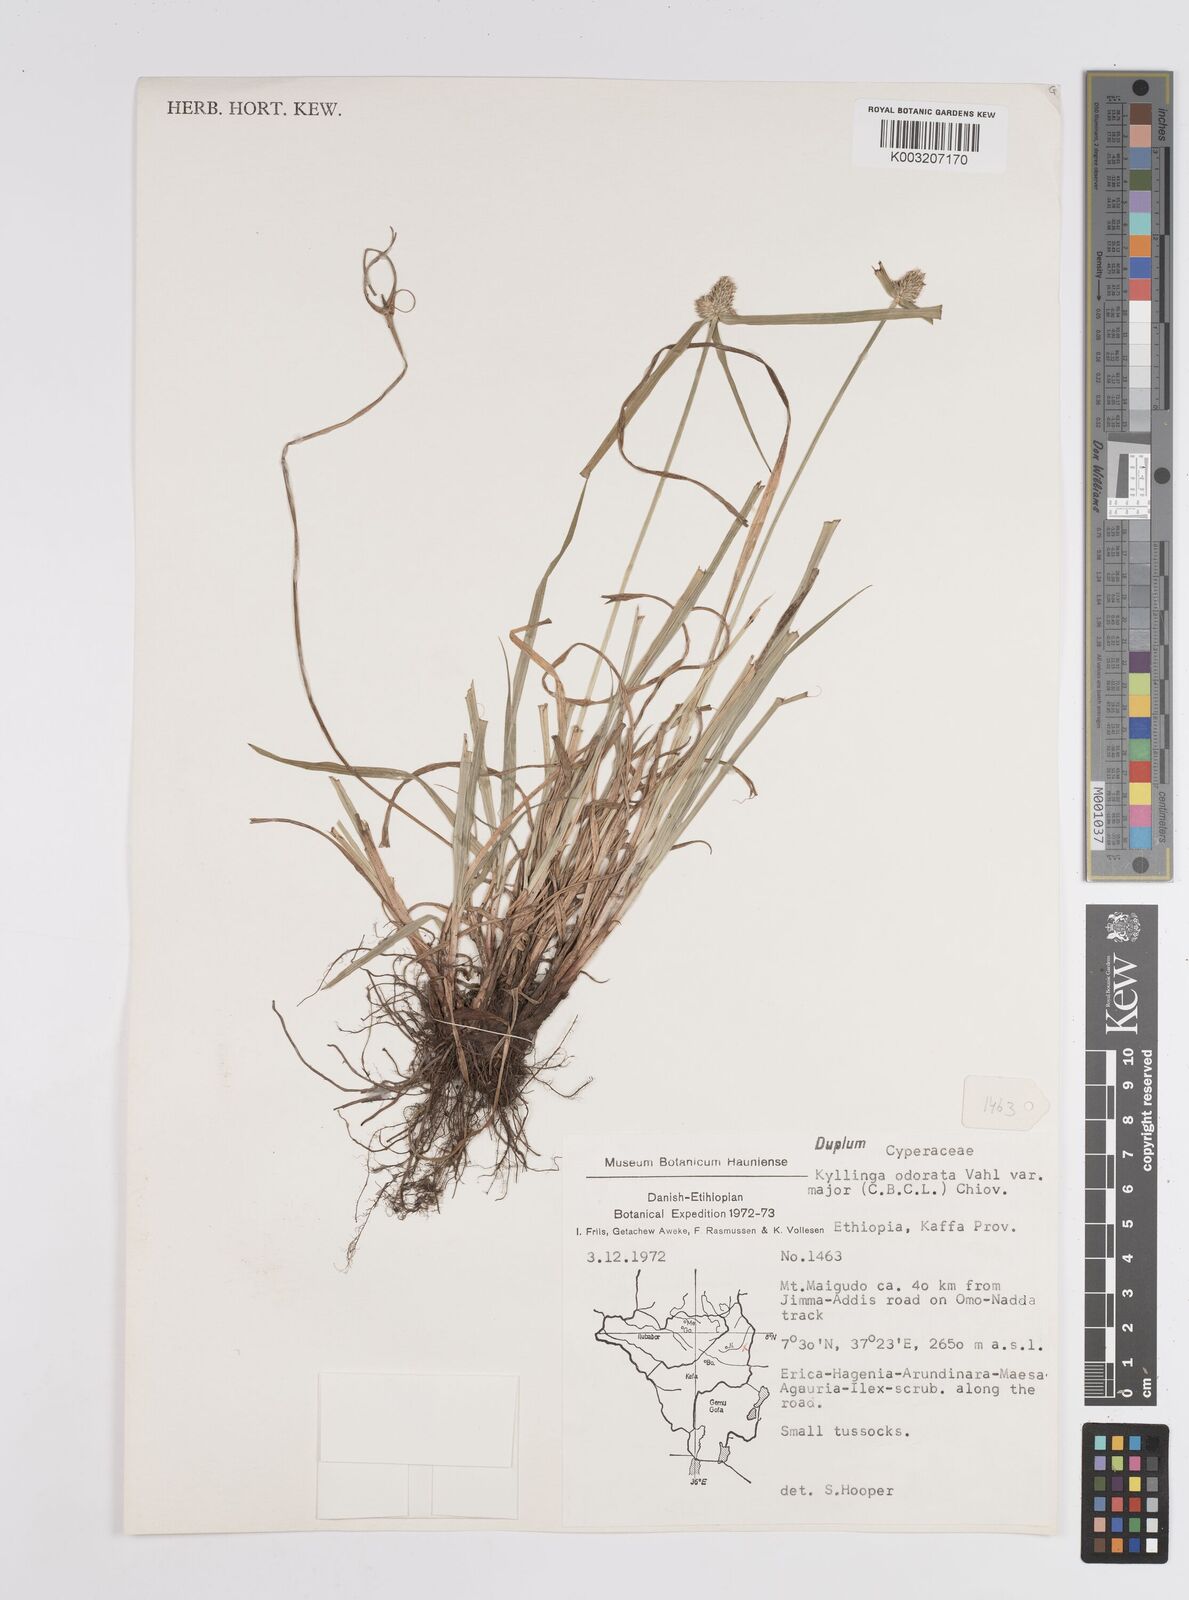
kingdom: Plantae
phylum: Tracheophyta
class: Liliopsida
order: Poales
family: Cyperaceae
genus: Cyperus
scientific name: Cyperus
